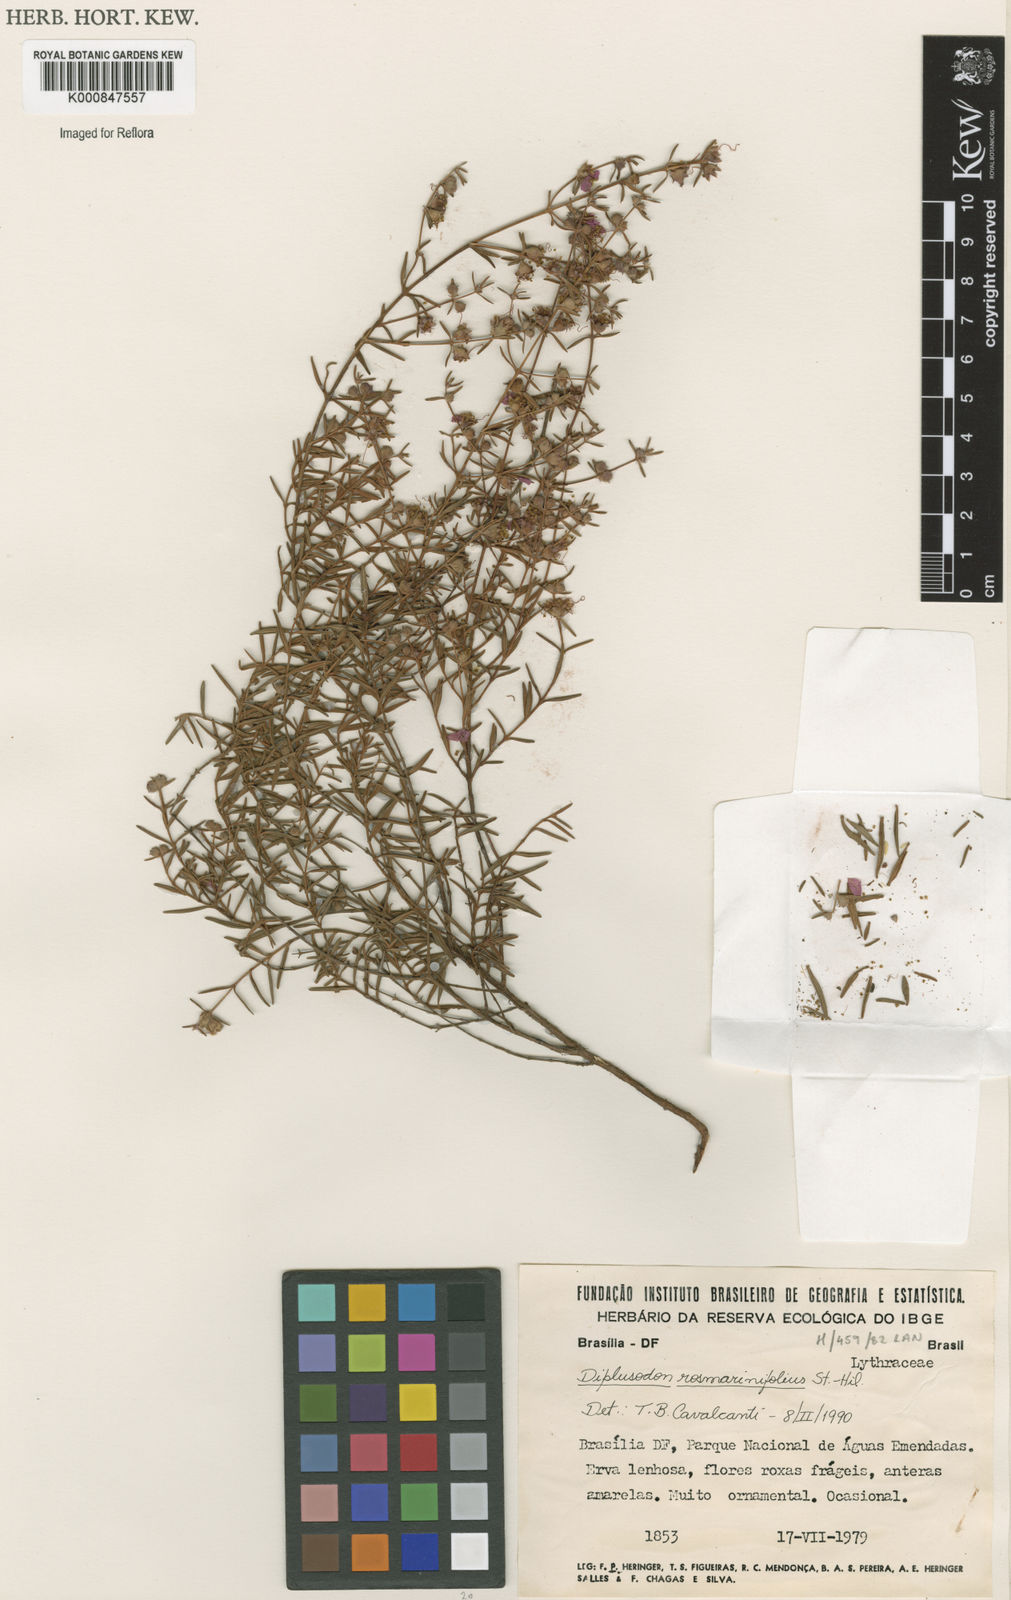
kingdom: Plantae
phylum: Tracheophyta
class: Magnoliopsida
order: Myrtales
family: Lythraceae
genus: Diplusodon
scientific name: Diplusodon rosmarinifolius
